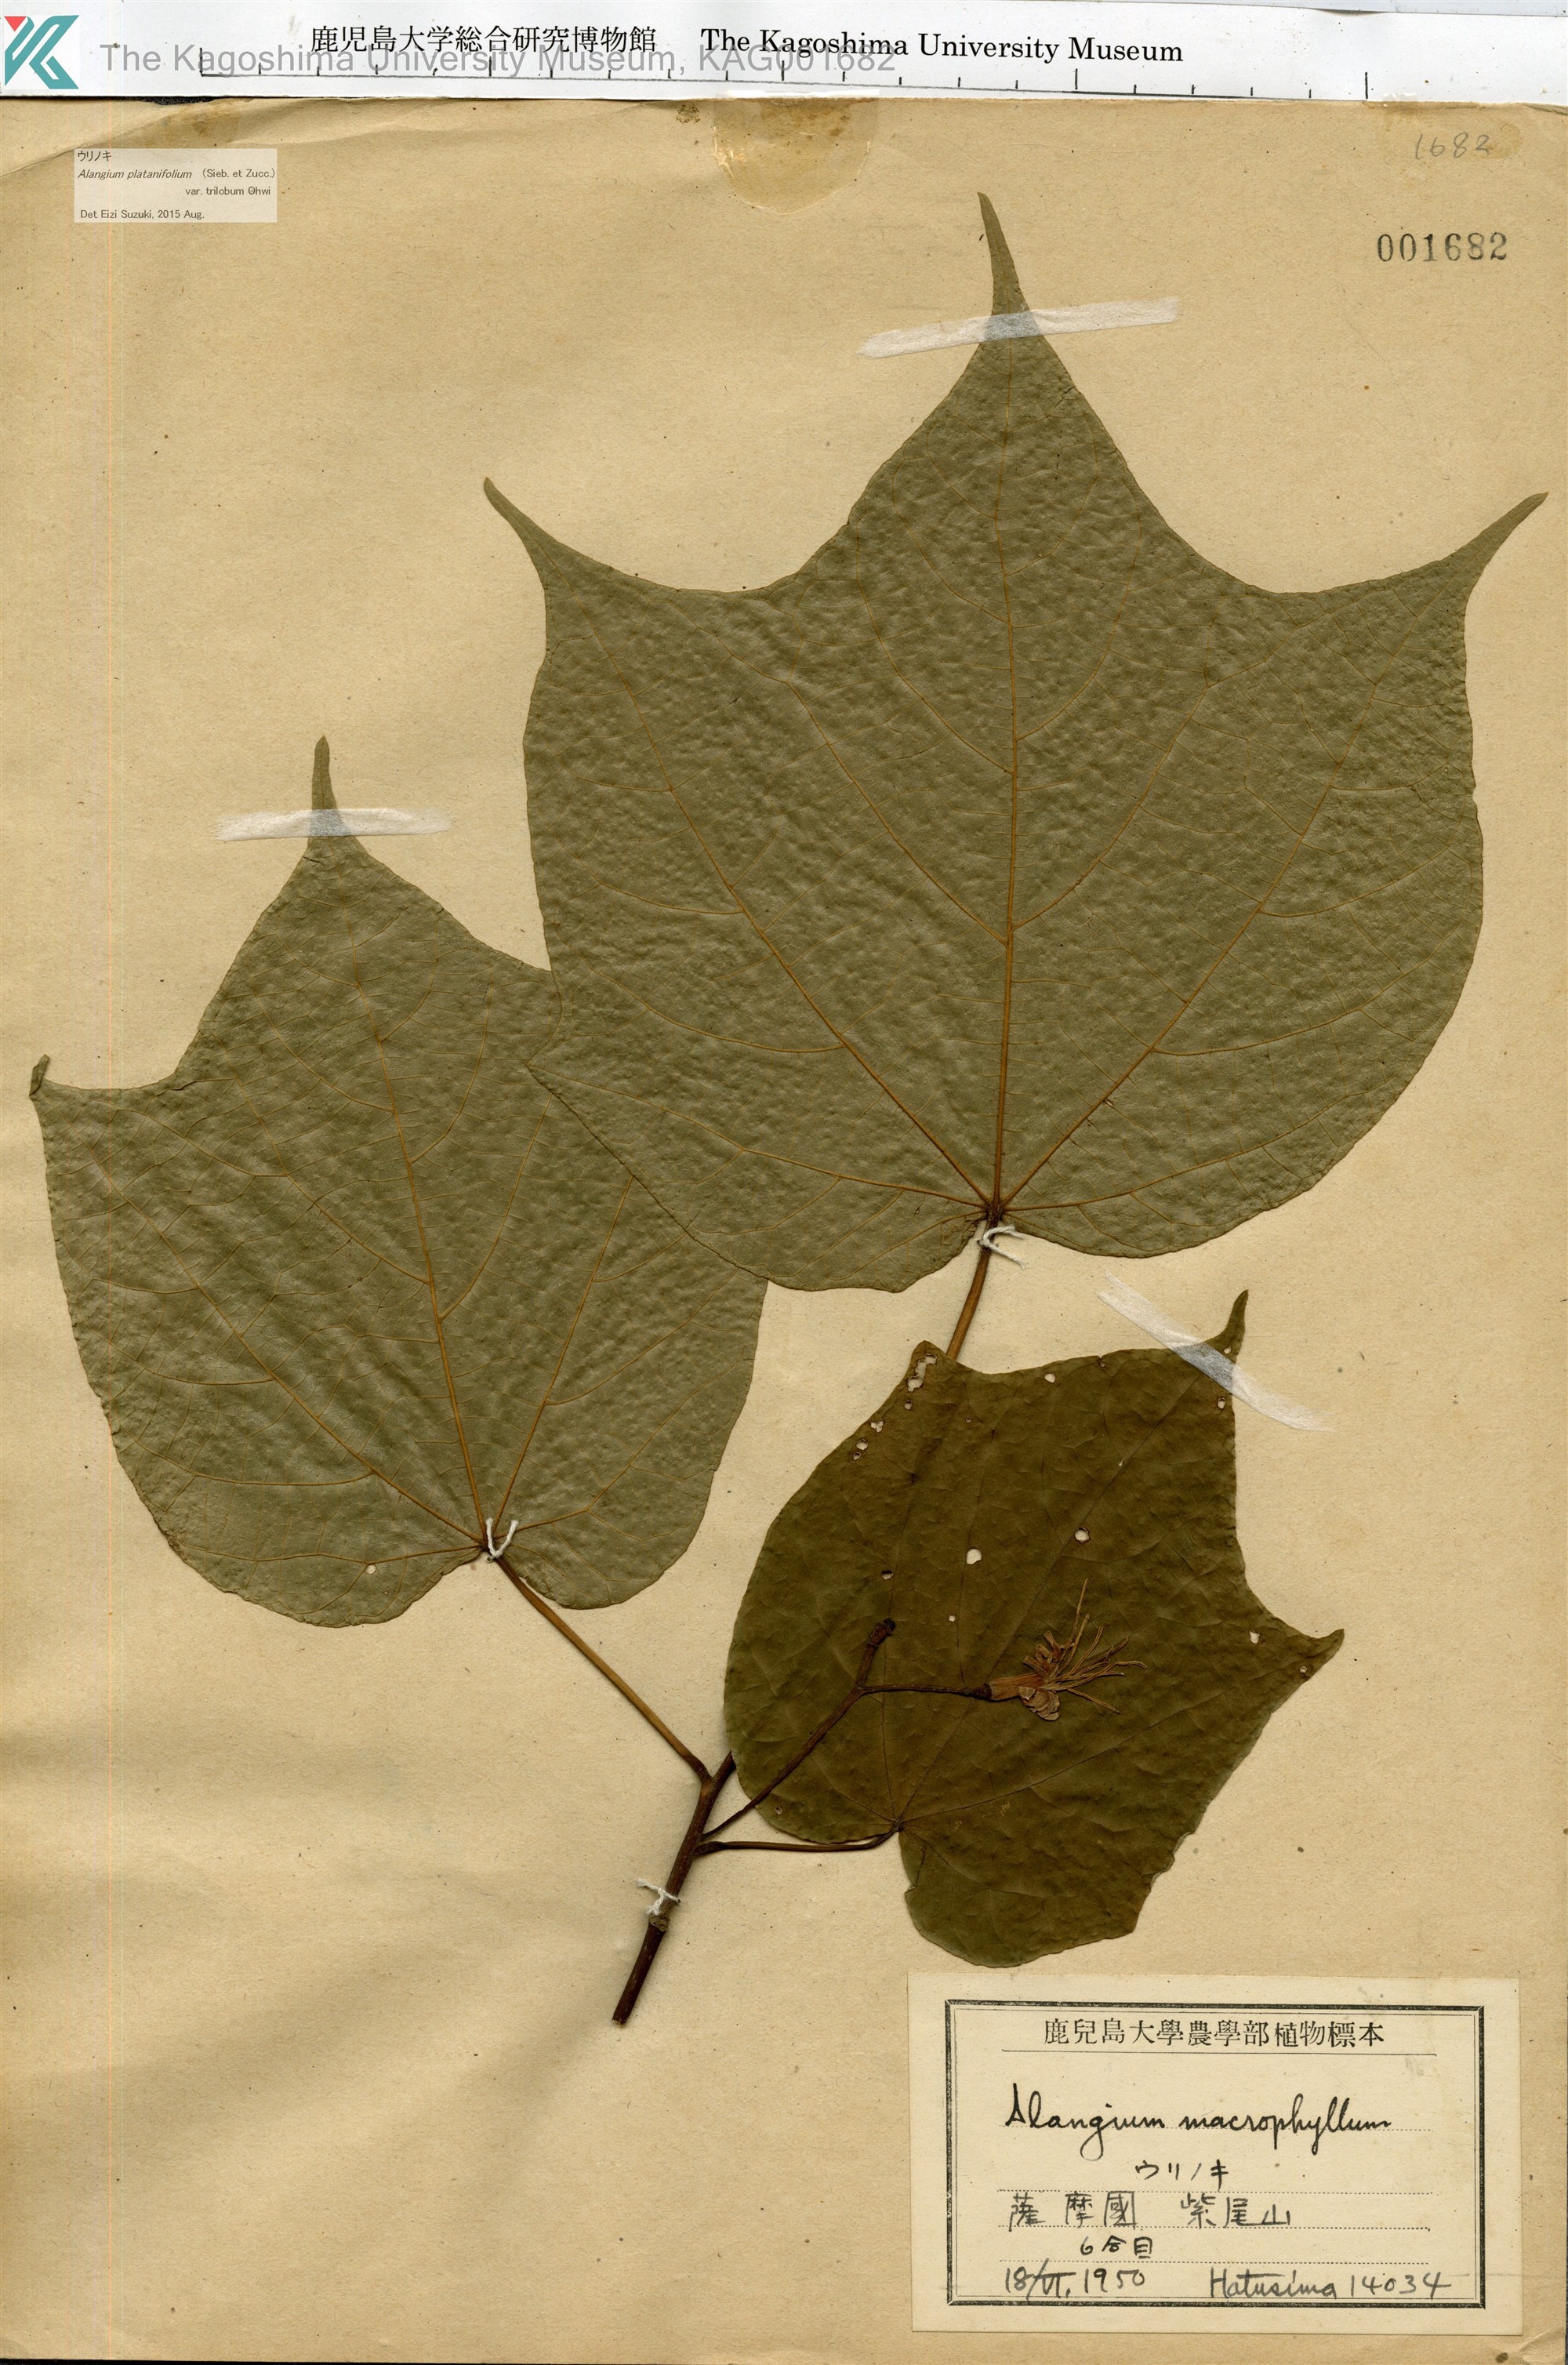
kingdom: Plantae
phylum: Tracheophyta
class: Magnoliopsida
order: Cornales
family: Cornaceae
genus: Alangium
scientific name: Alangium platanifolium
